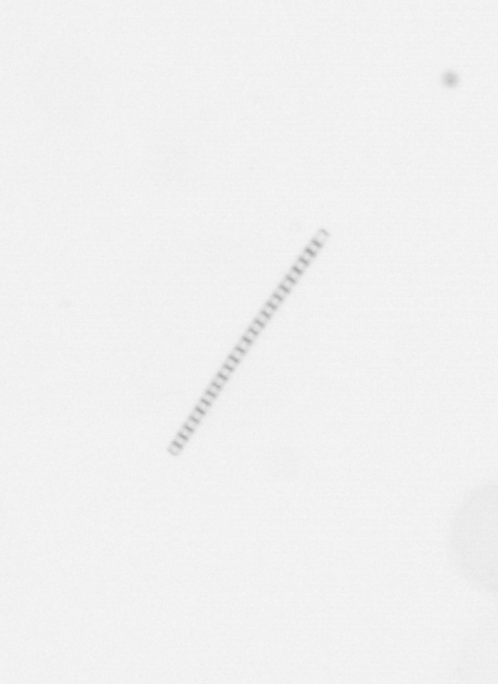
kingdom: Chromista
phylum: Ochrophyta
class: Bacillariophyceae
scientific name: Bacillariophyceae
